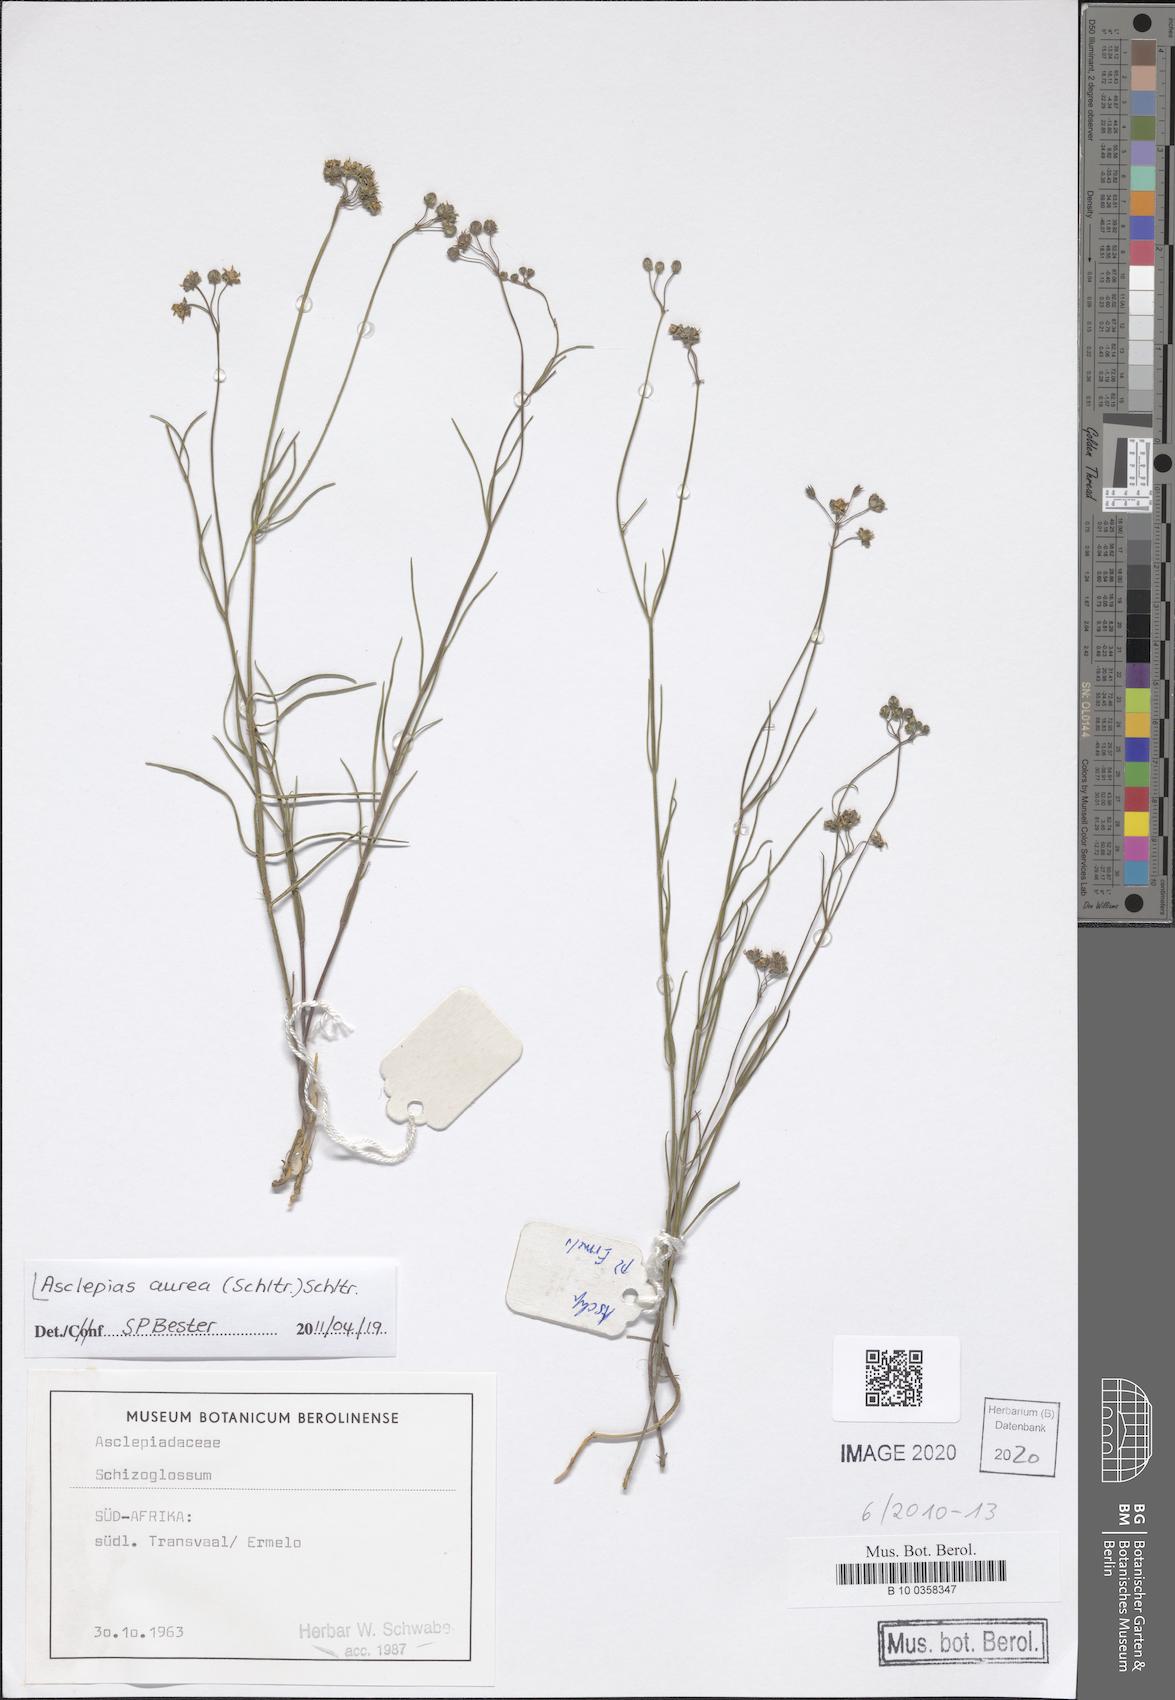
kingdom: Plantae
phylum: Tracheophyta
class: Magnoliopsida
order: Gentianales
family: Apocynaceae
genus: Asclepias
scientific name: Asclepias aurea
